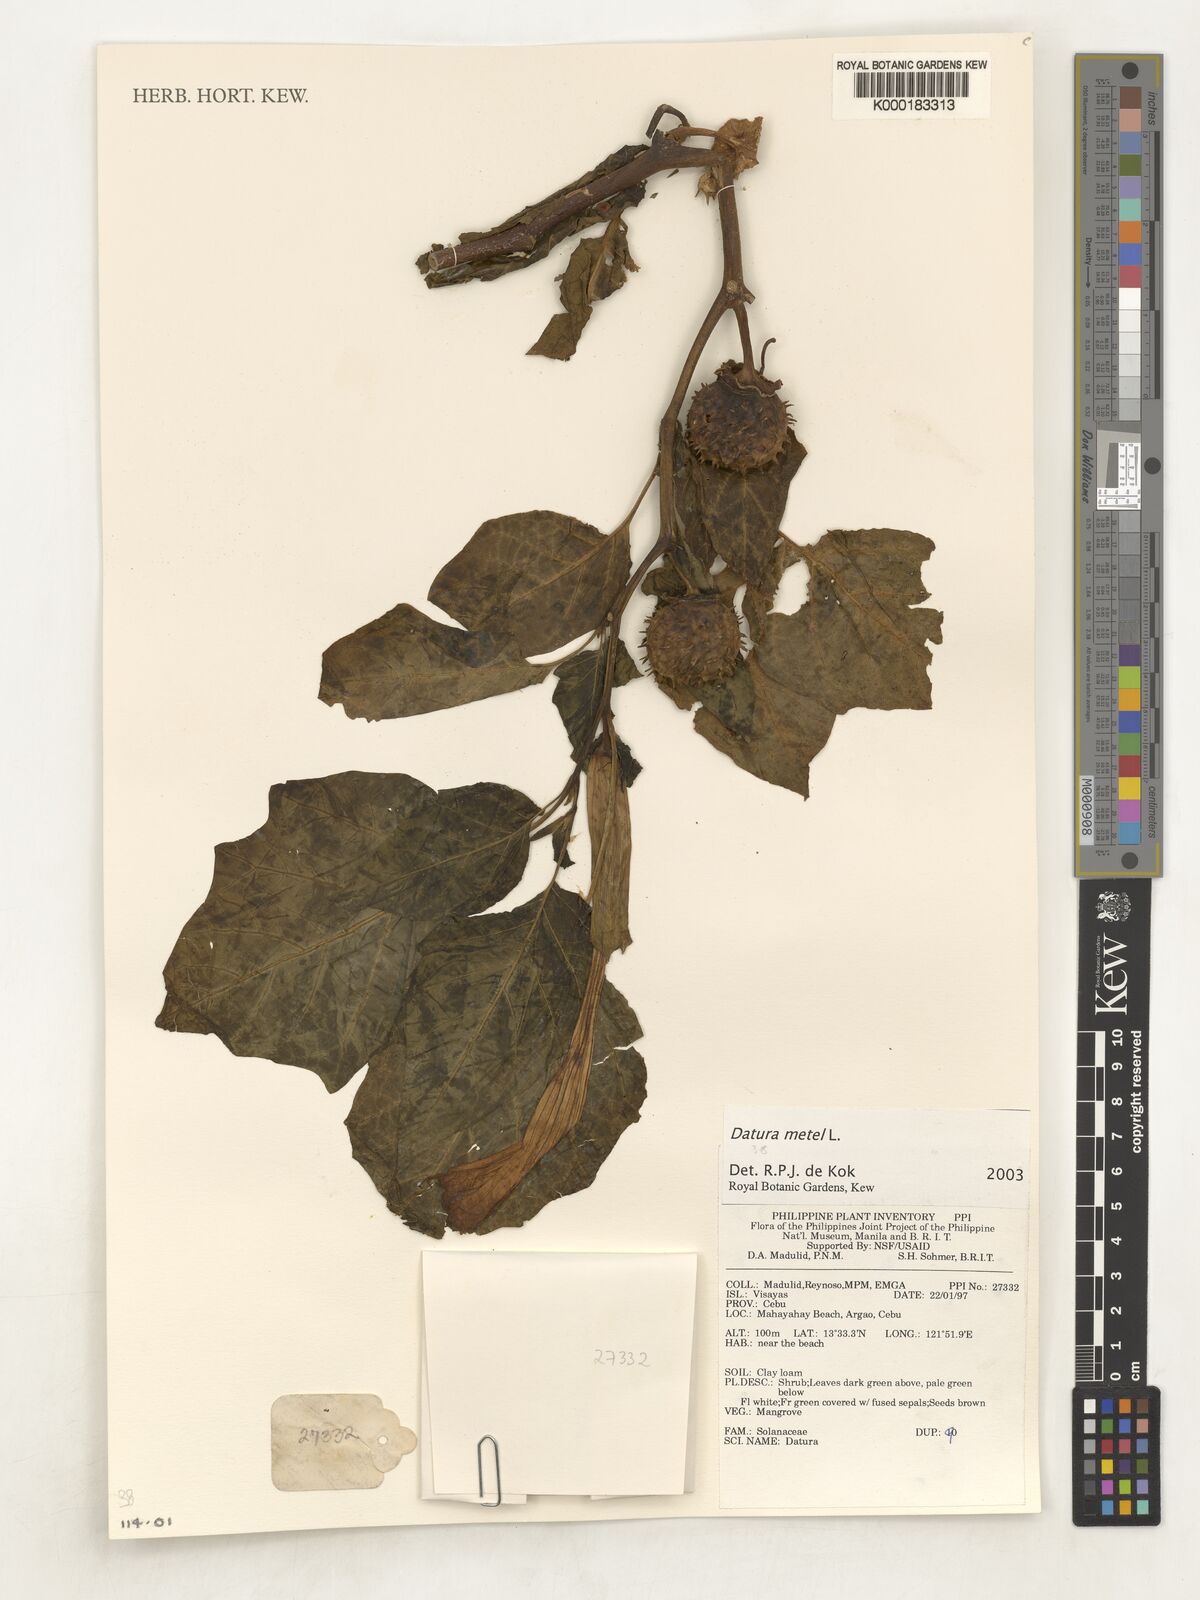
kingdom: Plantae
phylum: Tracheophyta
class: Magnoliopsida
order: Solanales
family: Solanaceae
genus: Datura
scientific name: Datura metel
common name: Jimsonweed
